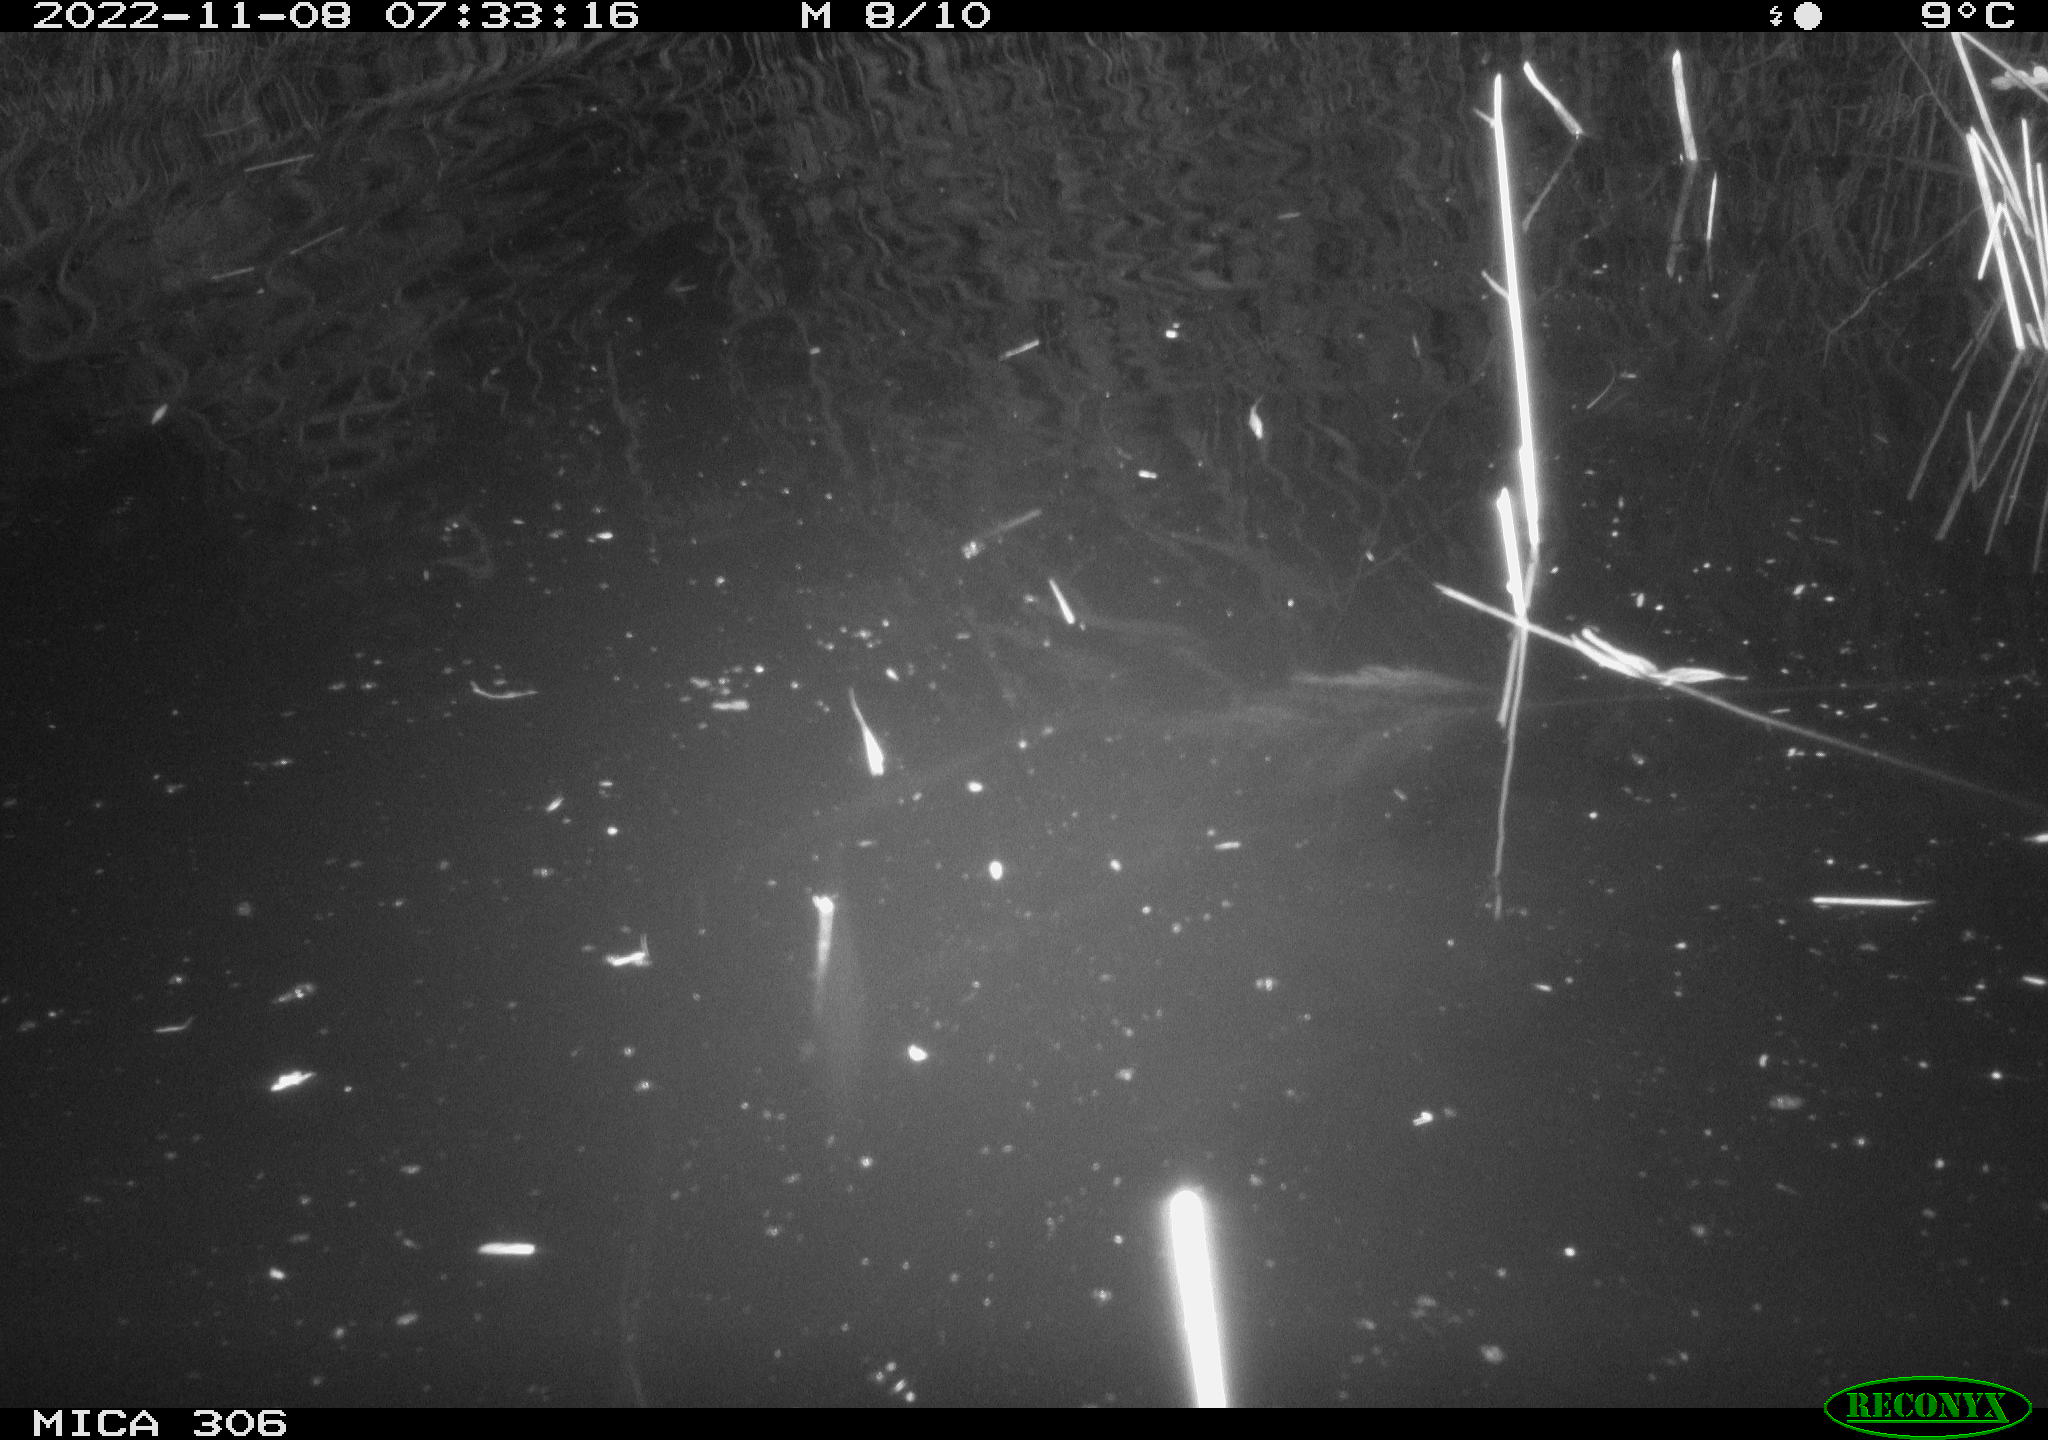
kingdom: Animalia
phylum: Chordata
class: Mammalia
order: Rodentia
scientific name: Rodentia
